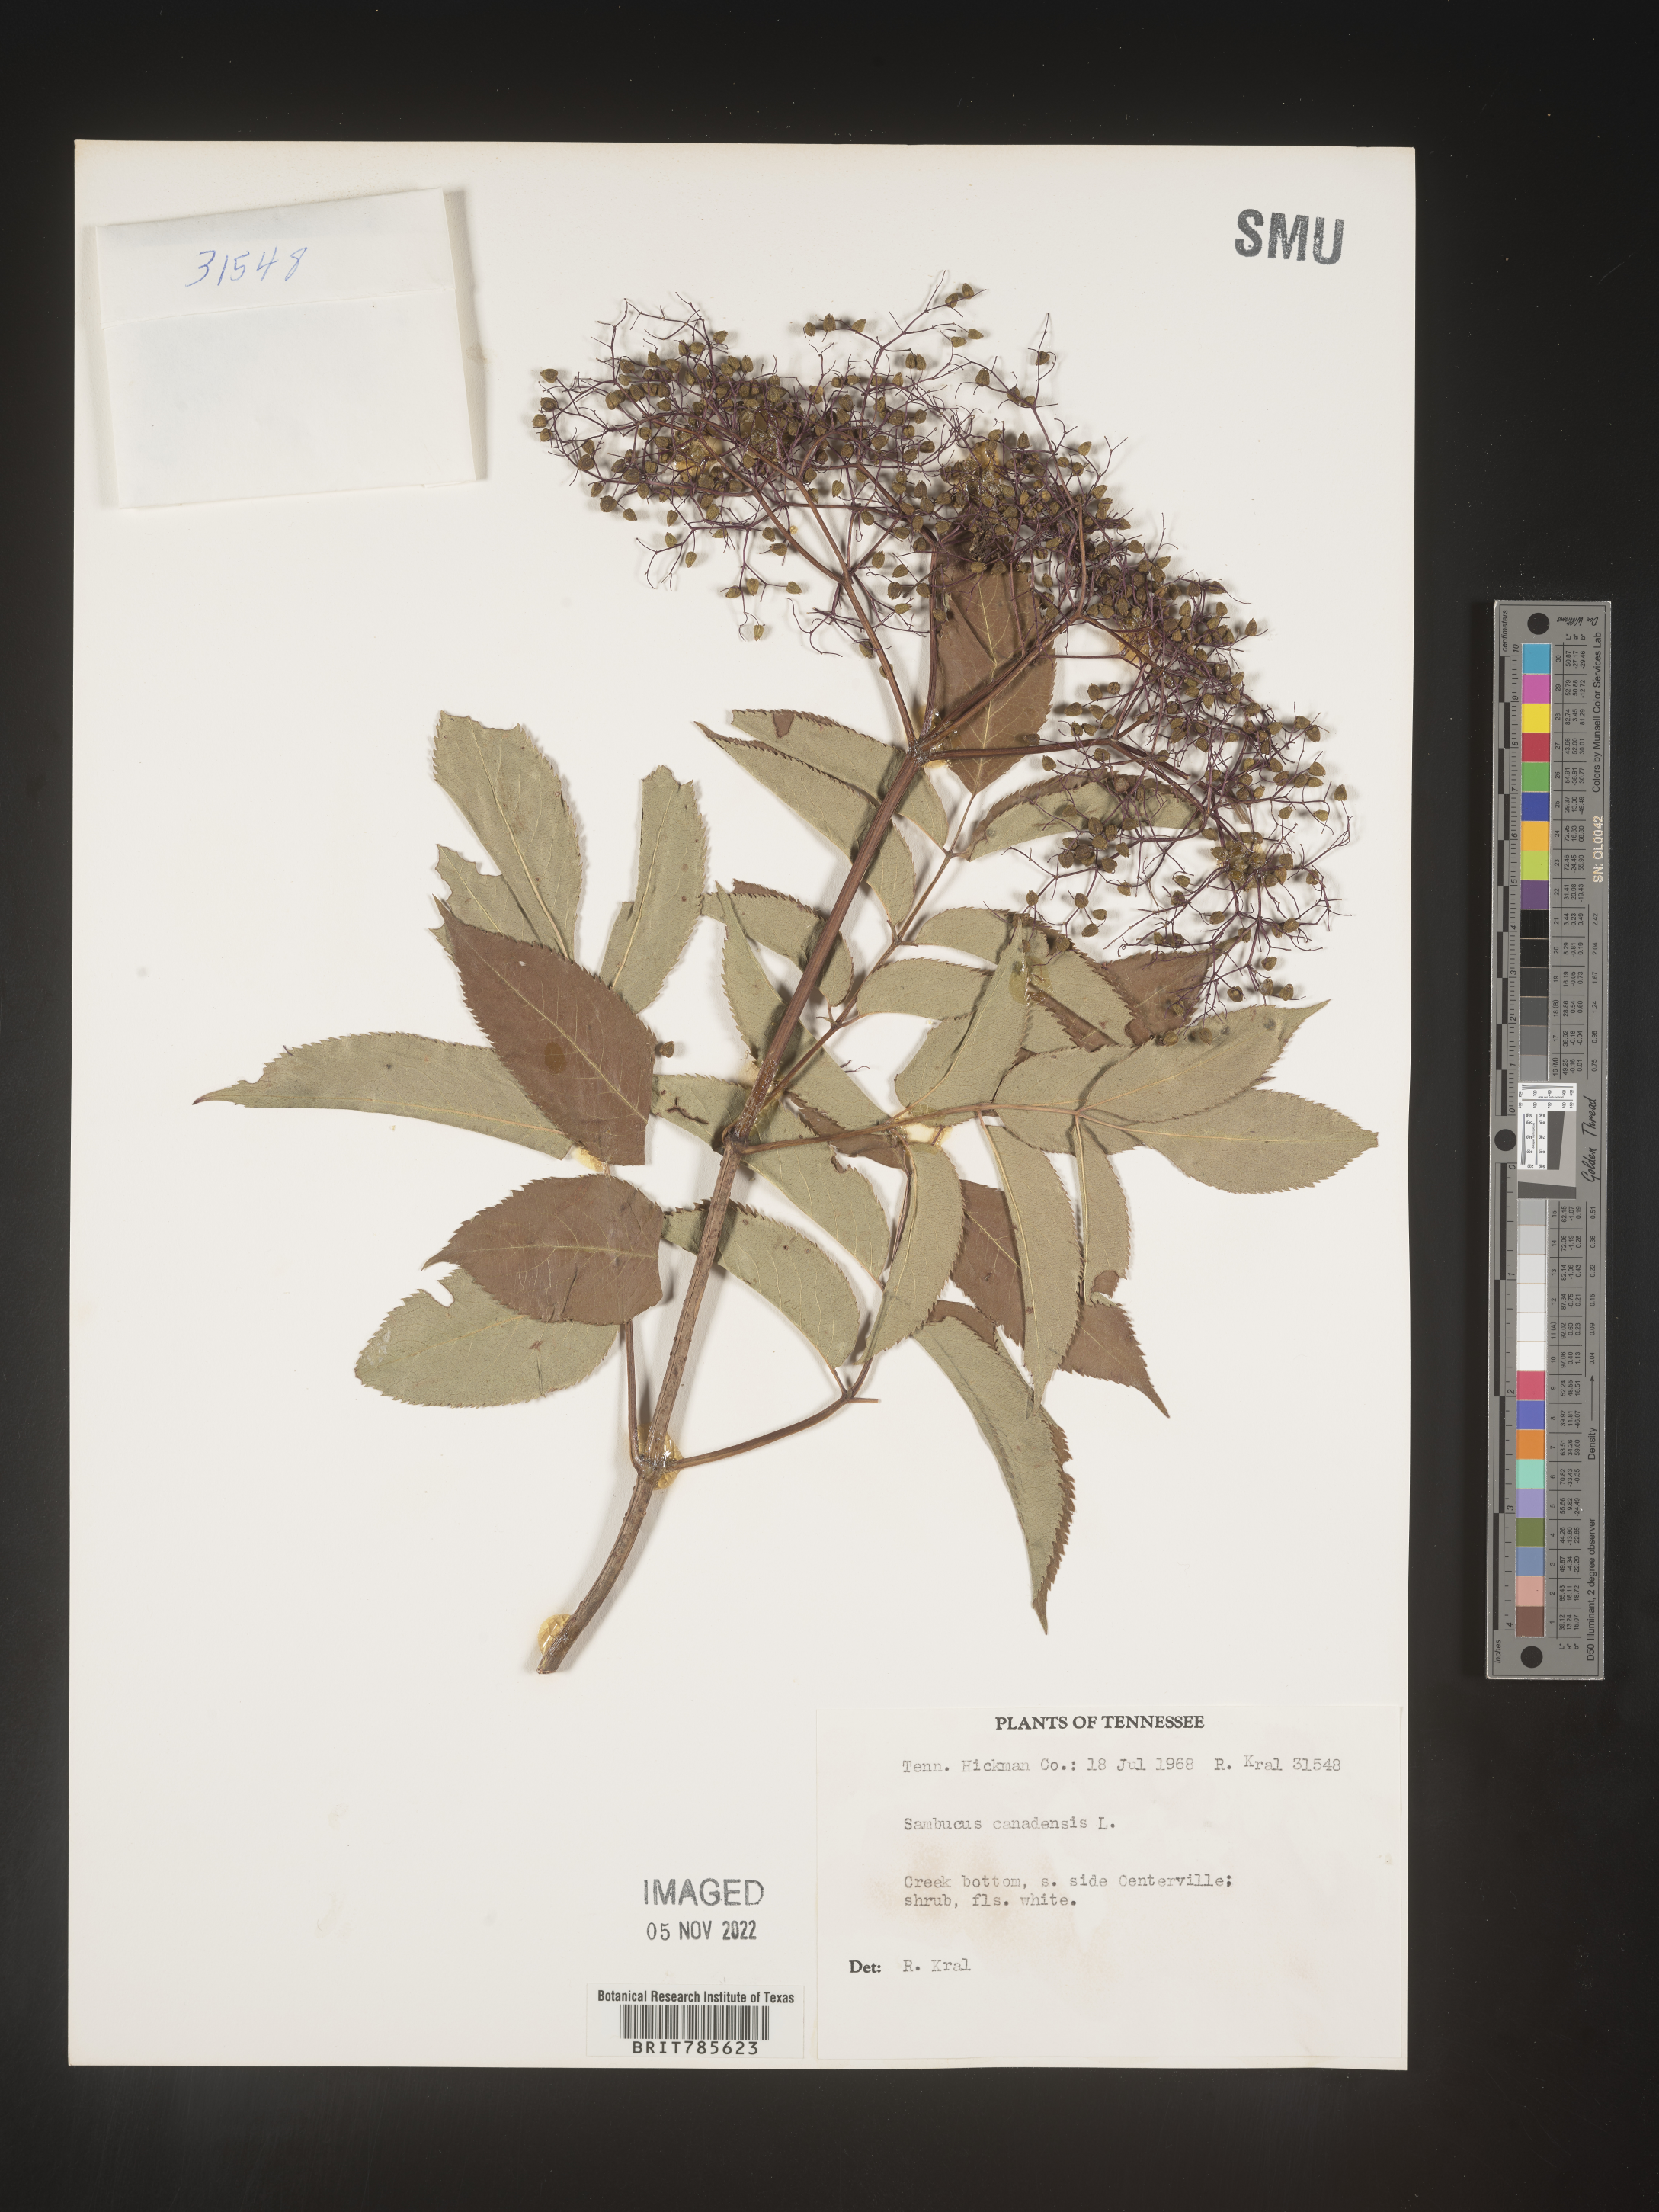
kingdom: Plantae
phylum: Tracheophyta
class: Magnoliopsida
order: Dipsacales
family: Viburnaceae
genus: Sambucus
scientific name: Sambucus canadensis
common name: American elder
